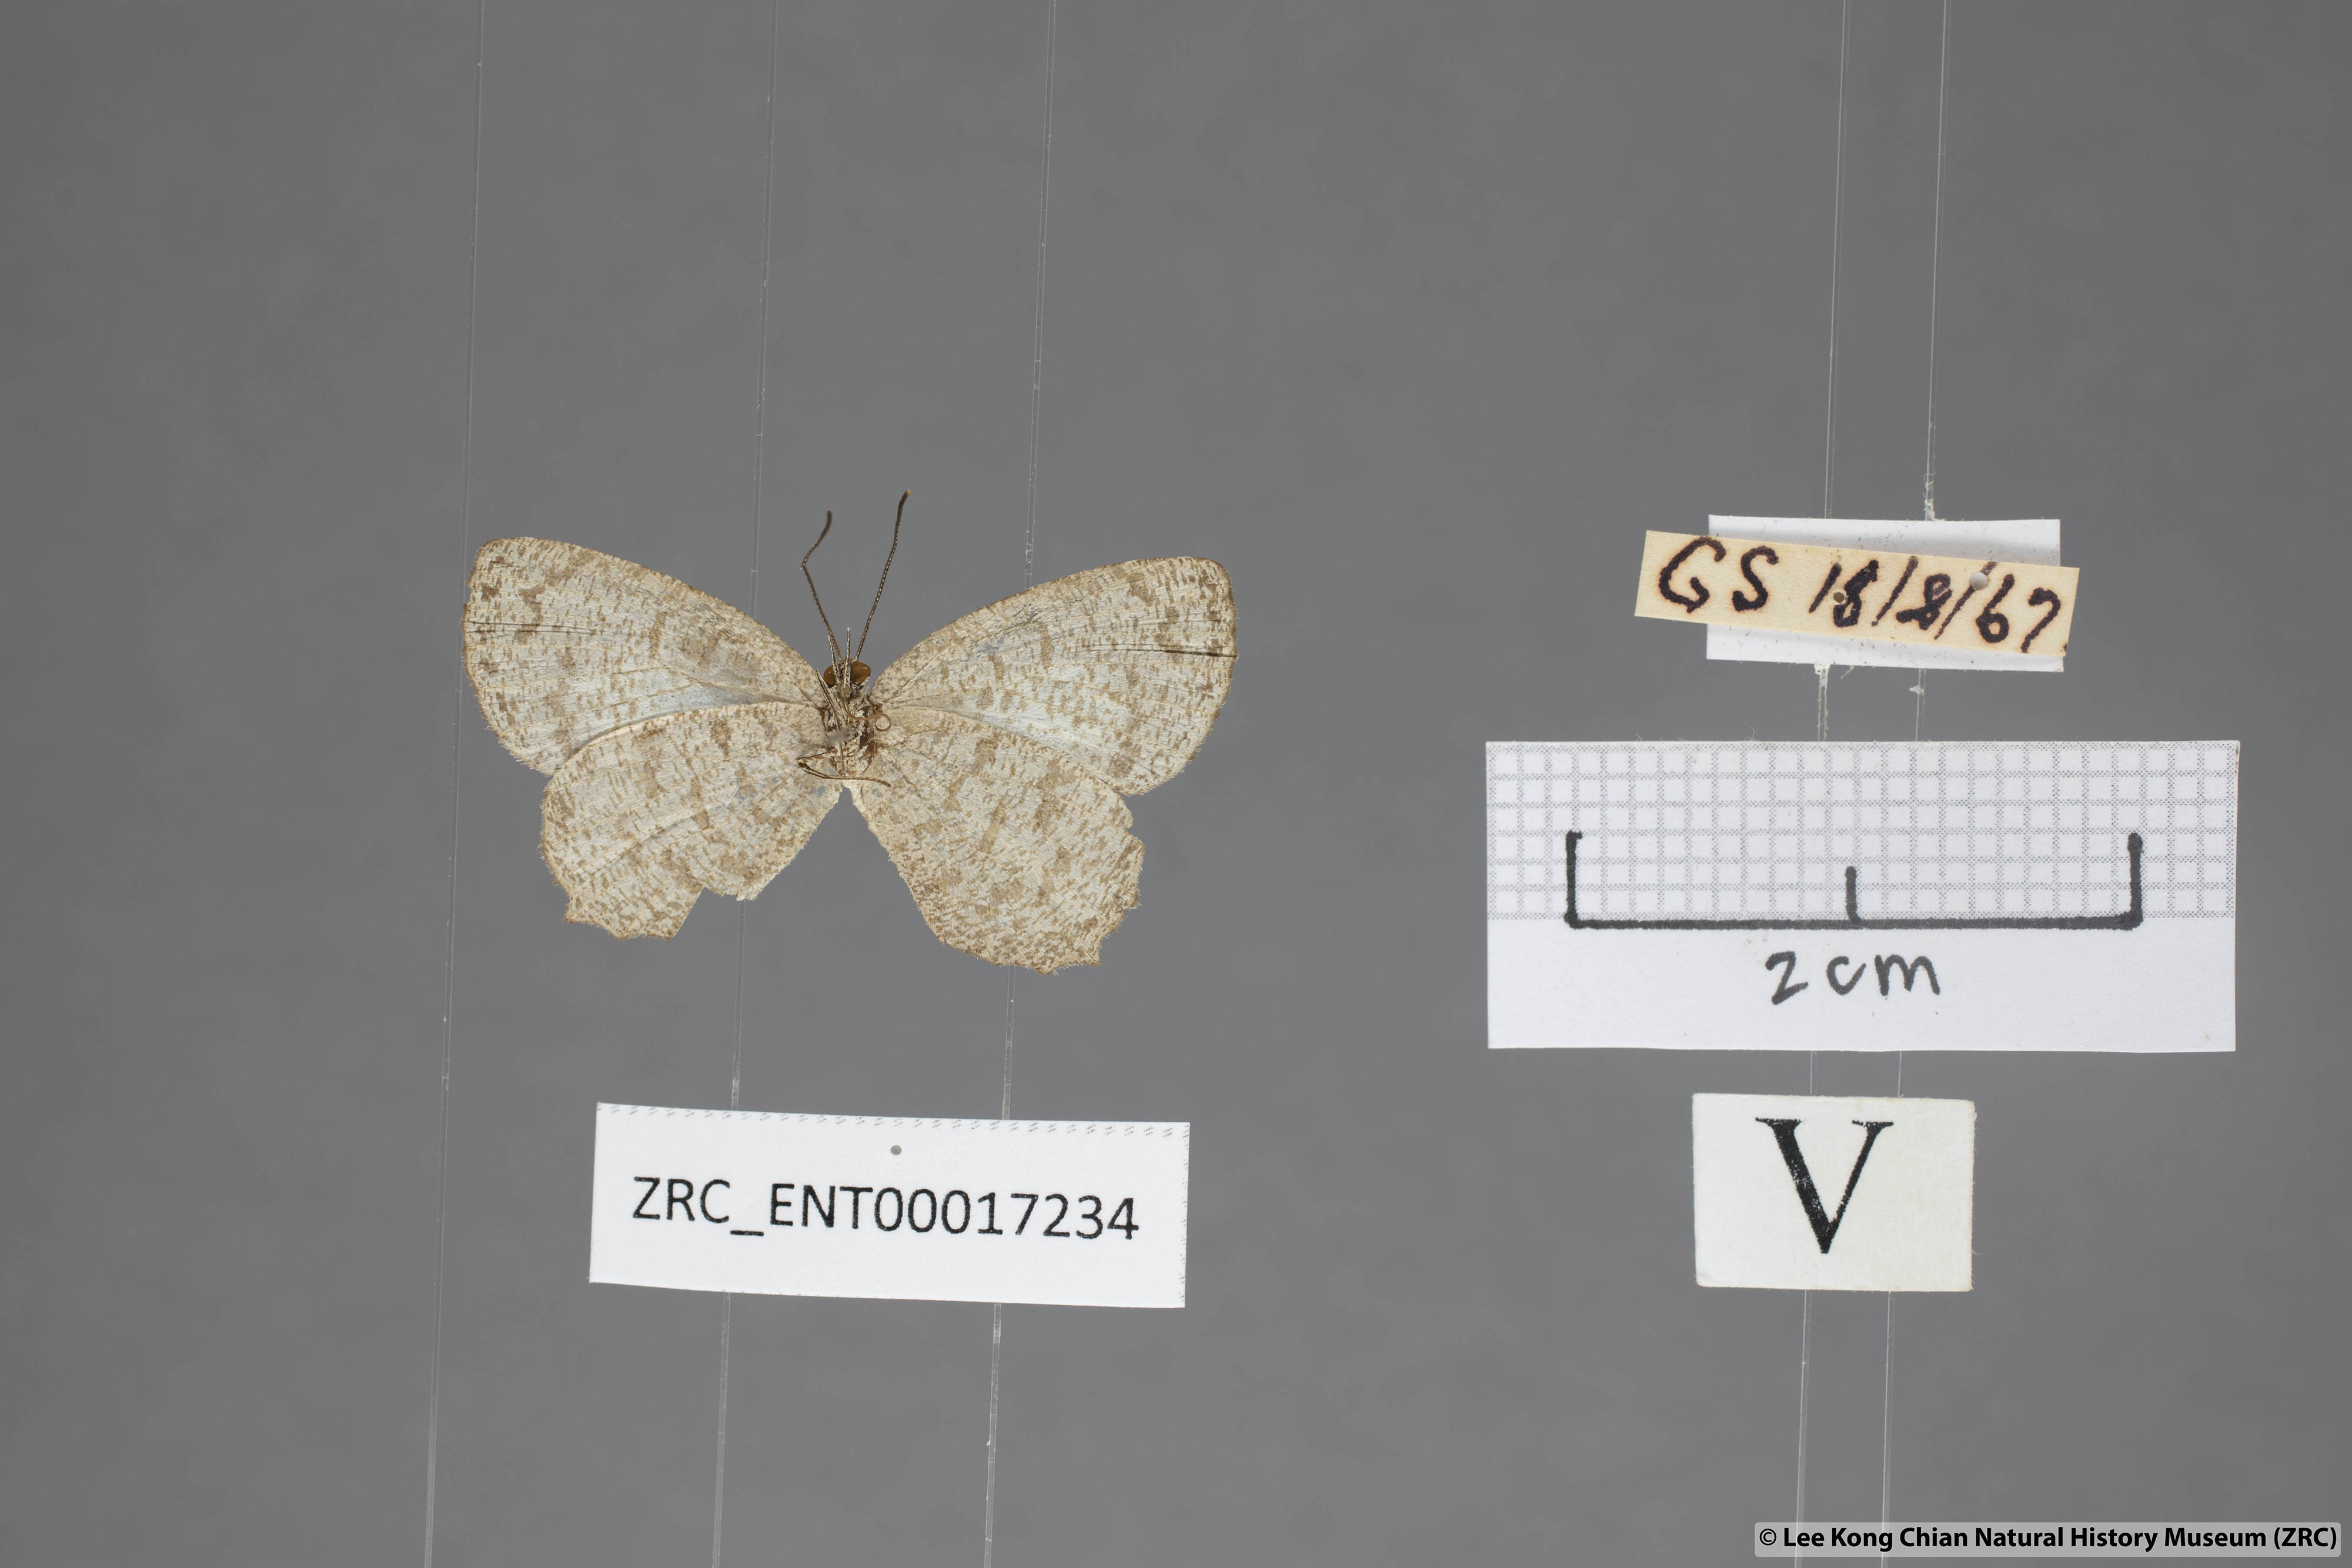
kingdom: Animalia
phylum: Arthropoda
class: Insecta
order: Lepidoptera
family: Lycaenidae
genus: Allotinus
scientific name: Allotinus fallax
